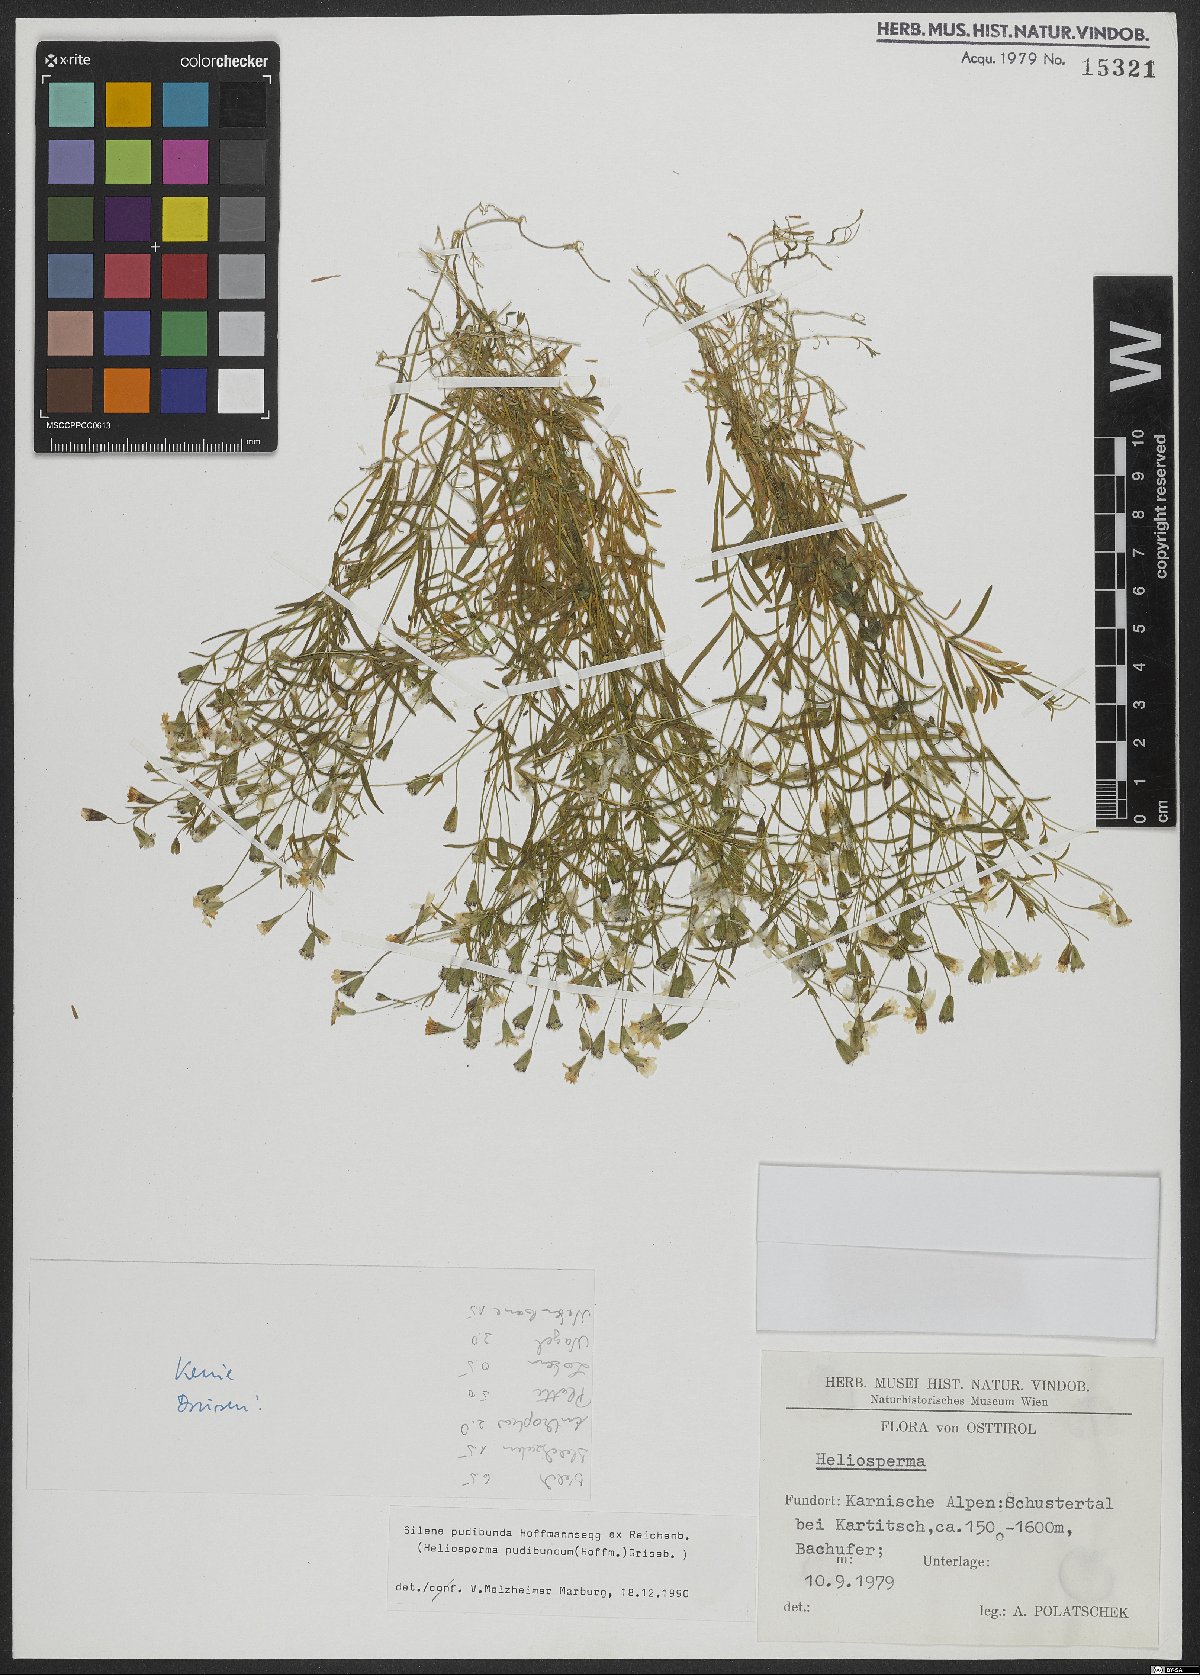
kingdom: Plantae
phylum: Tracheophyta
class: Magnoliopsida
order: Caryophyllales
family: Caryophyllaceae
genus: Heliosperma
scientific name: Heliosperma pudibundum
